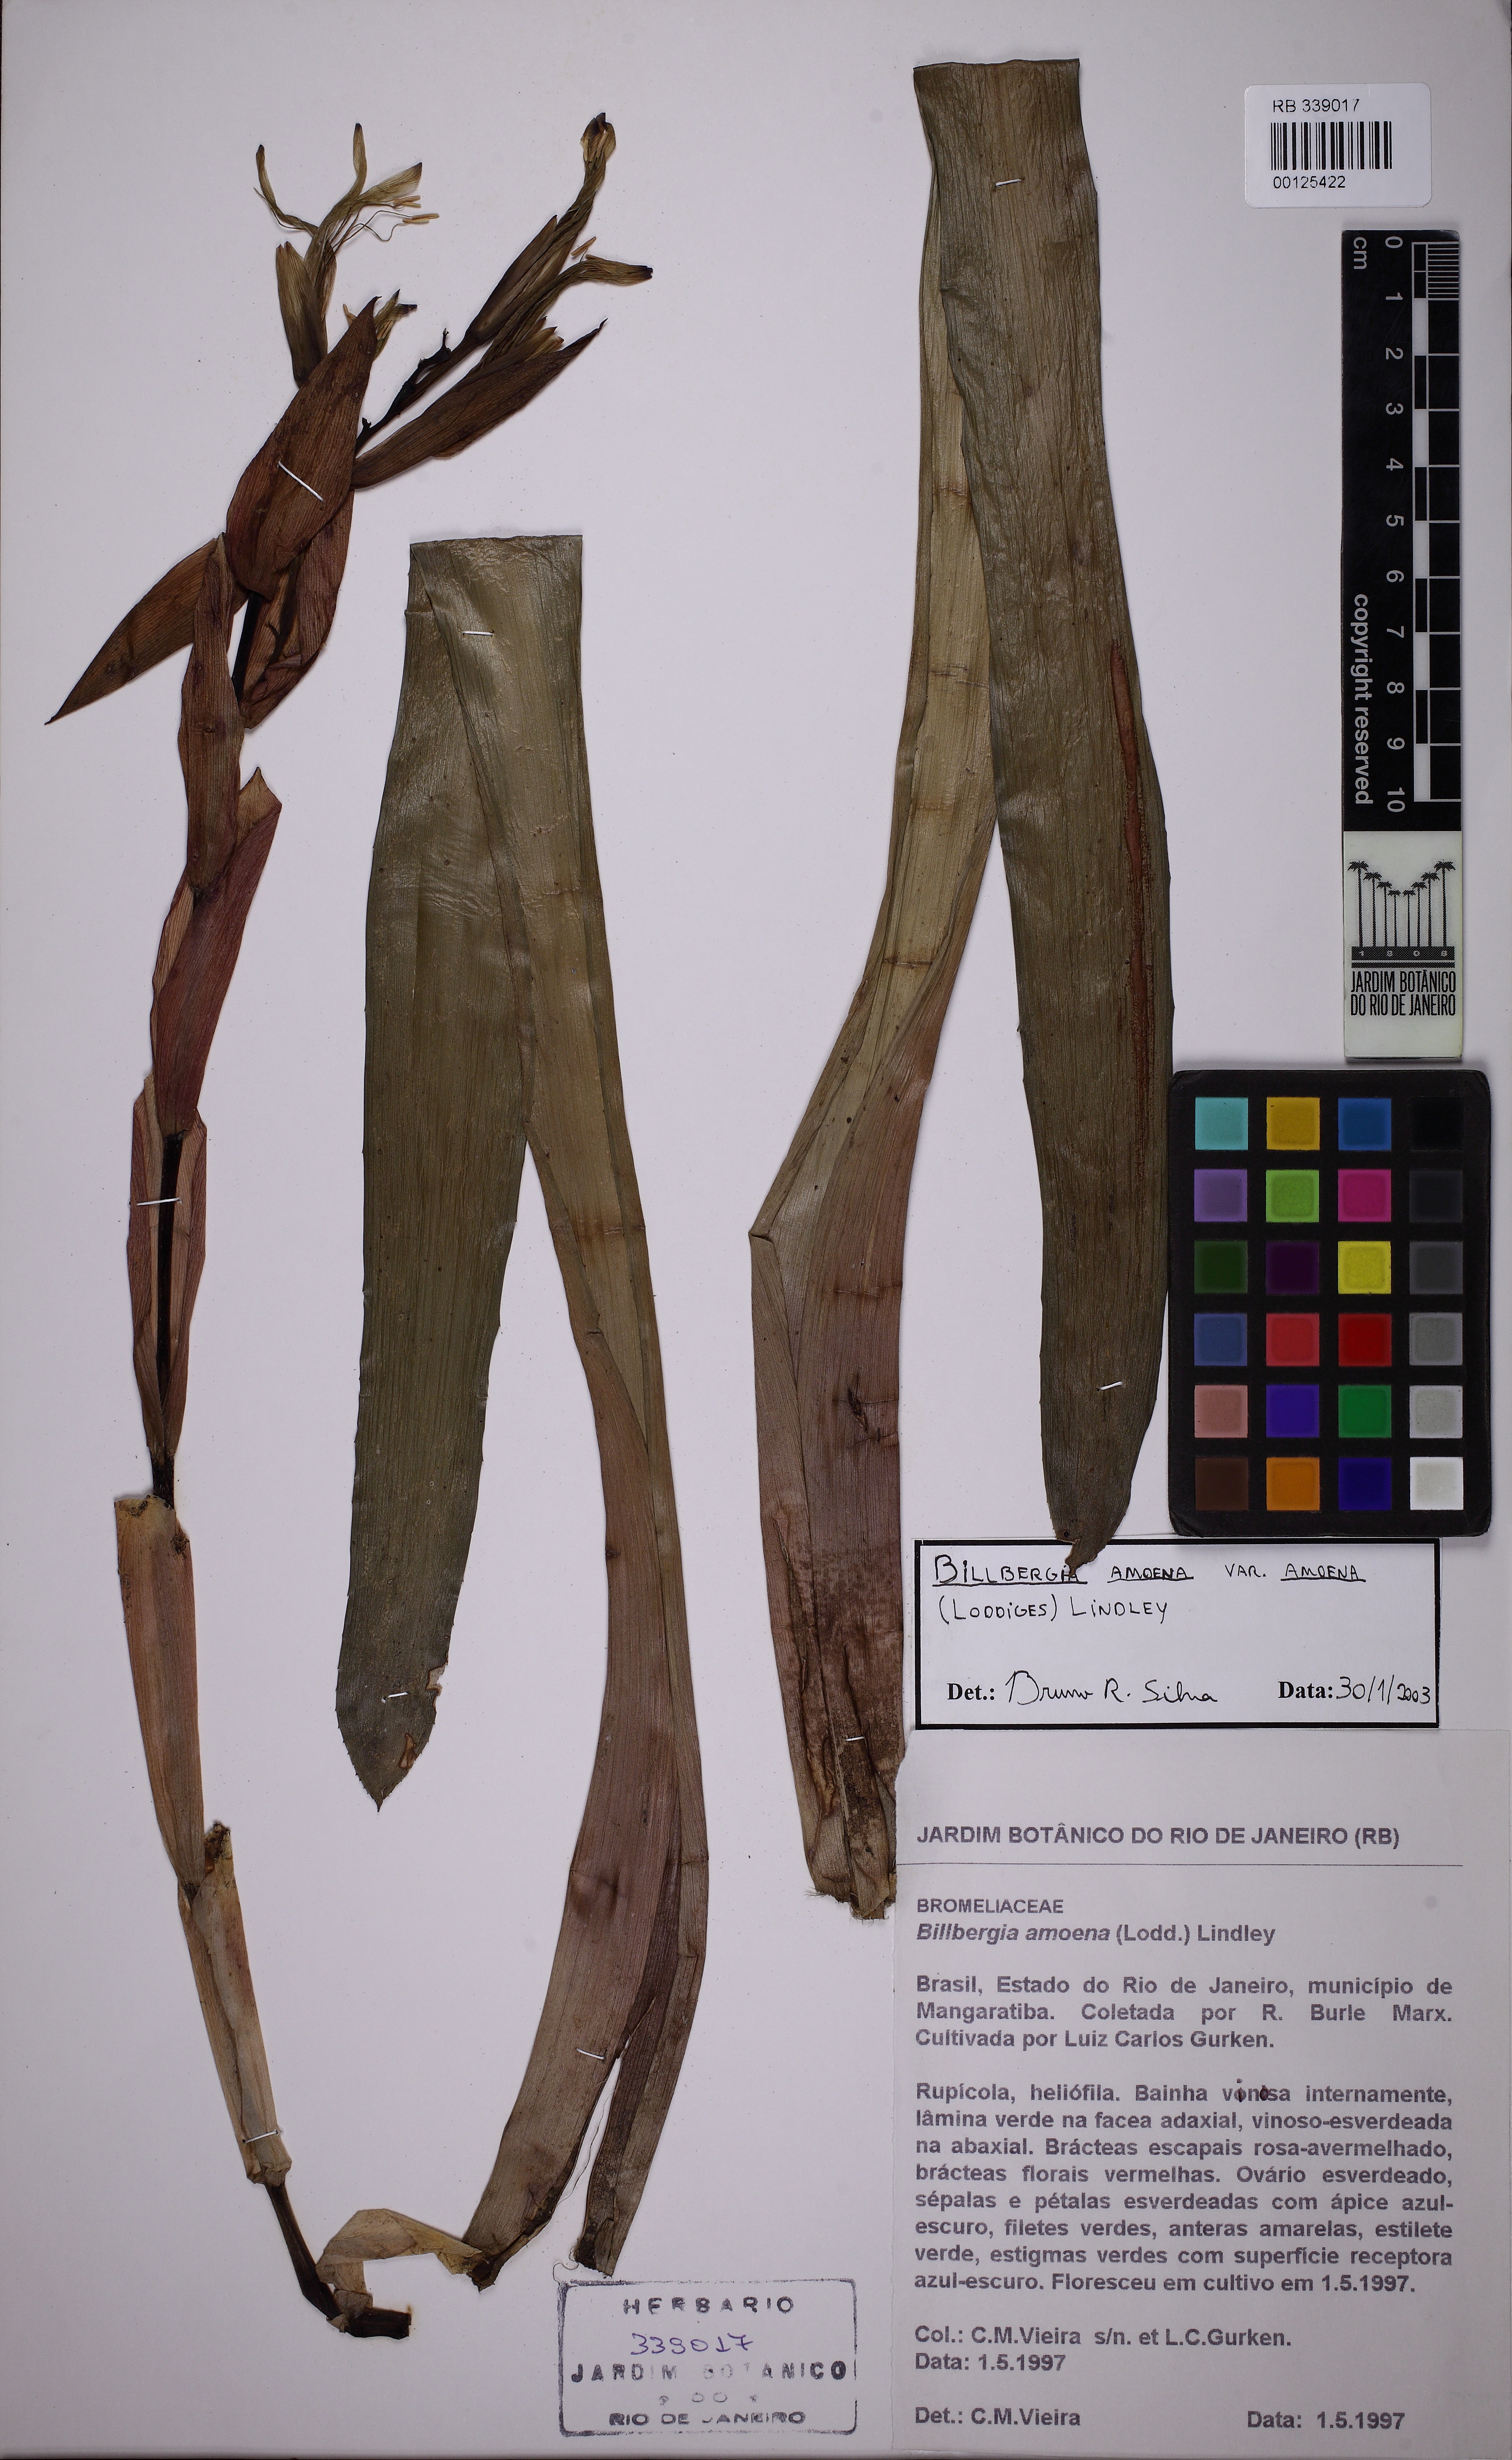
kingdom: Plantae
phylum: Tracheophyta
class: Liliopsida
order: Poales
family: Bromeliaceae
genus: Tillandsia
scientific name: Tillandsia tenuifolia
